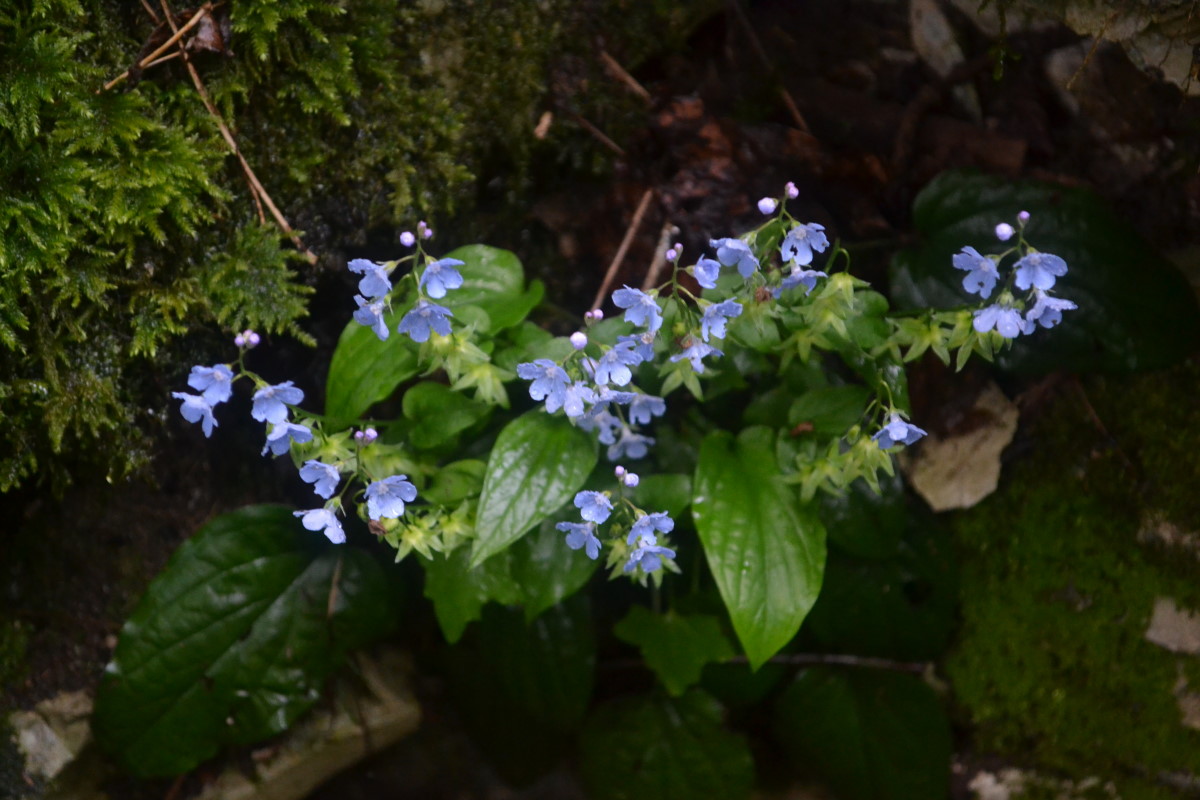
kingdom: Plantae
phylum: Tracheophyta
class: Magnoliopsida
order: Boraginales
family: Boraginaceae
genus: Omphalodes
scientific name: Omphalodes
